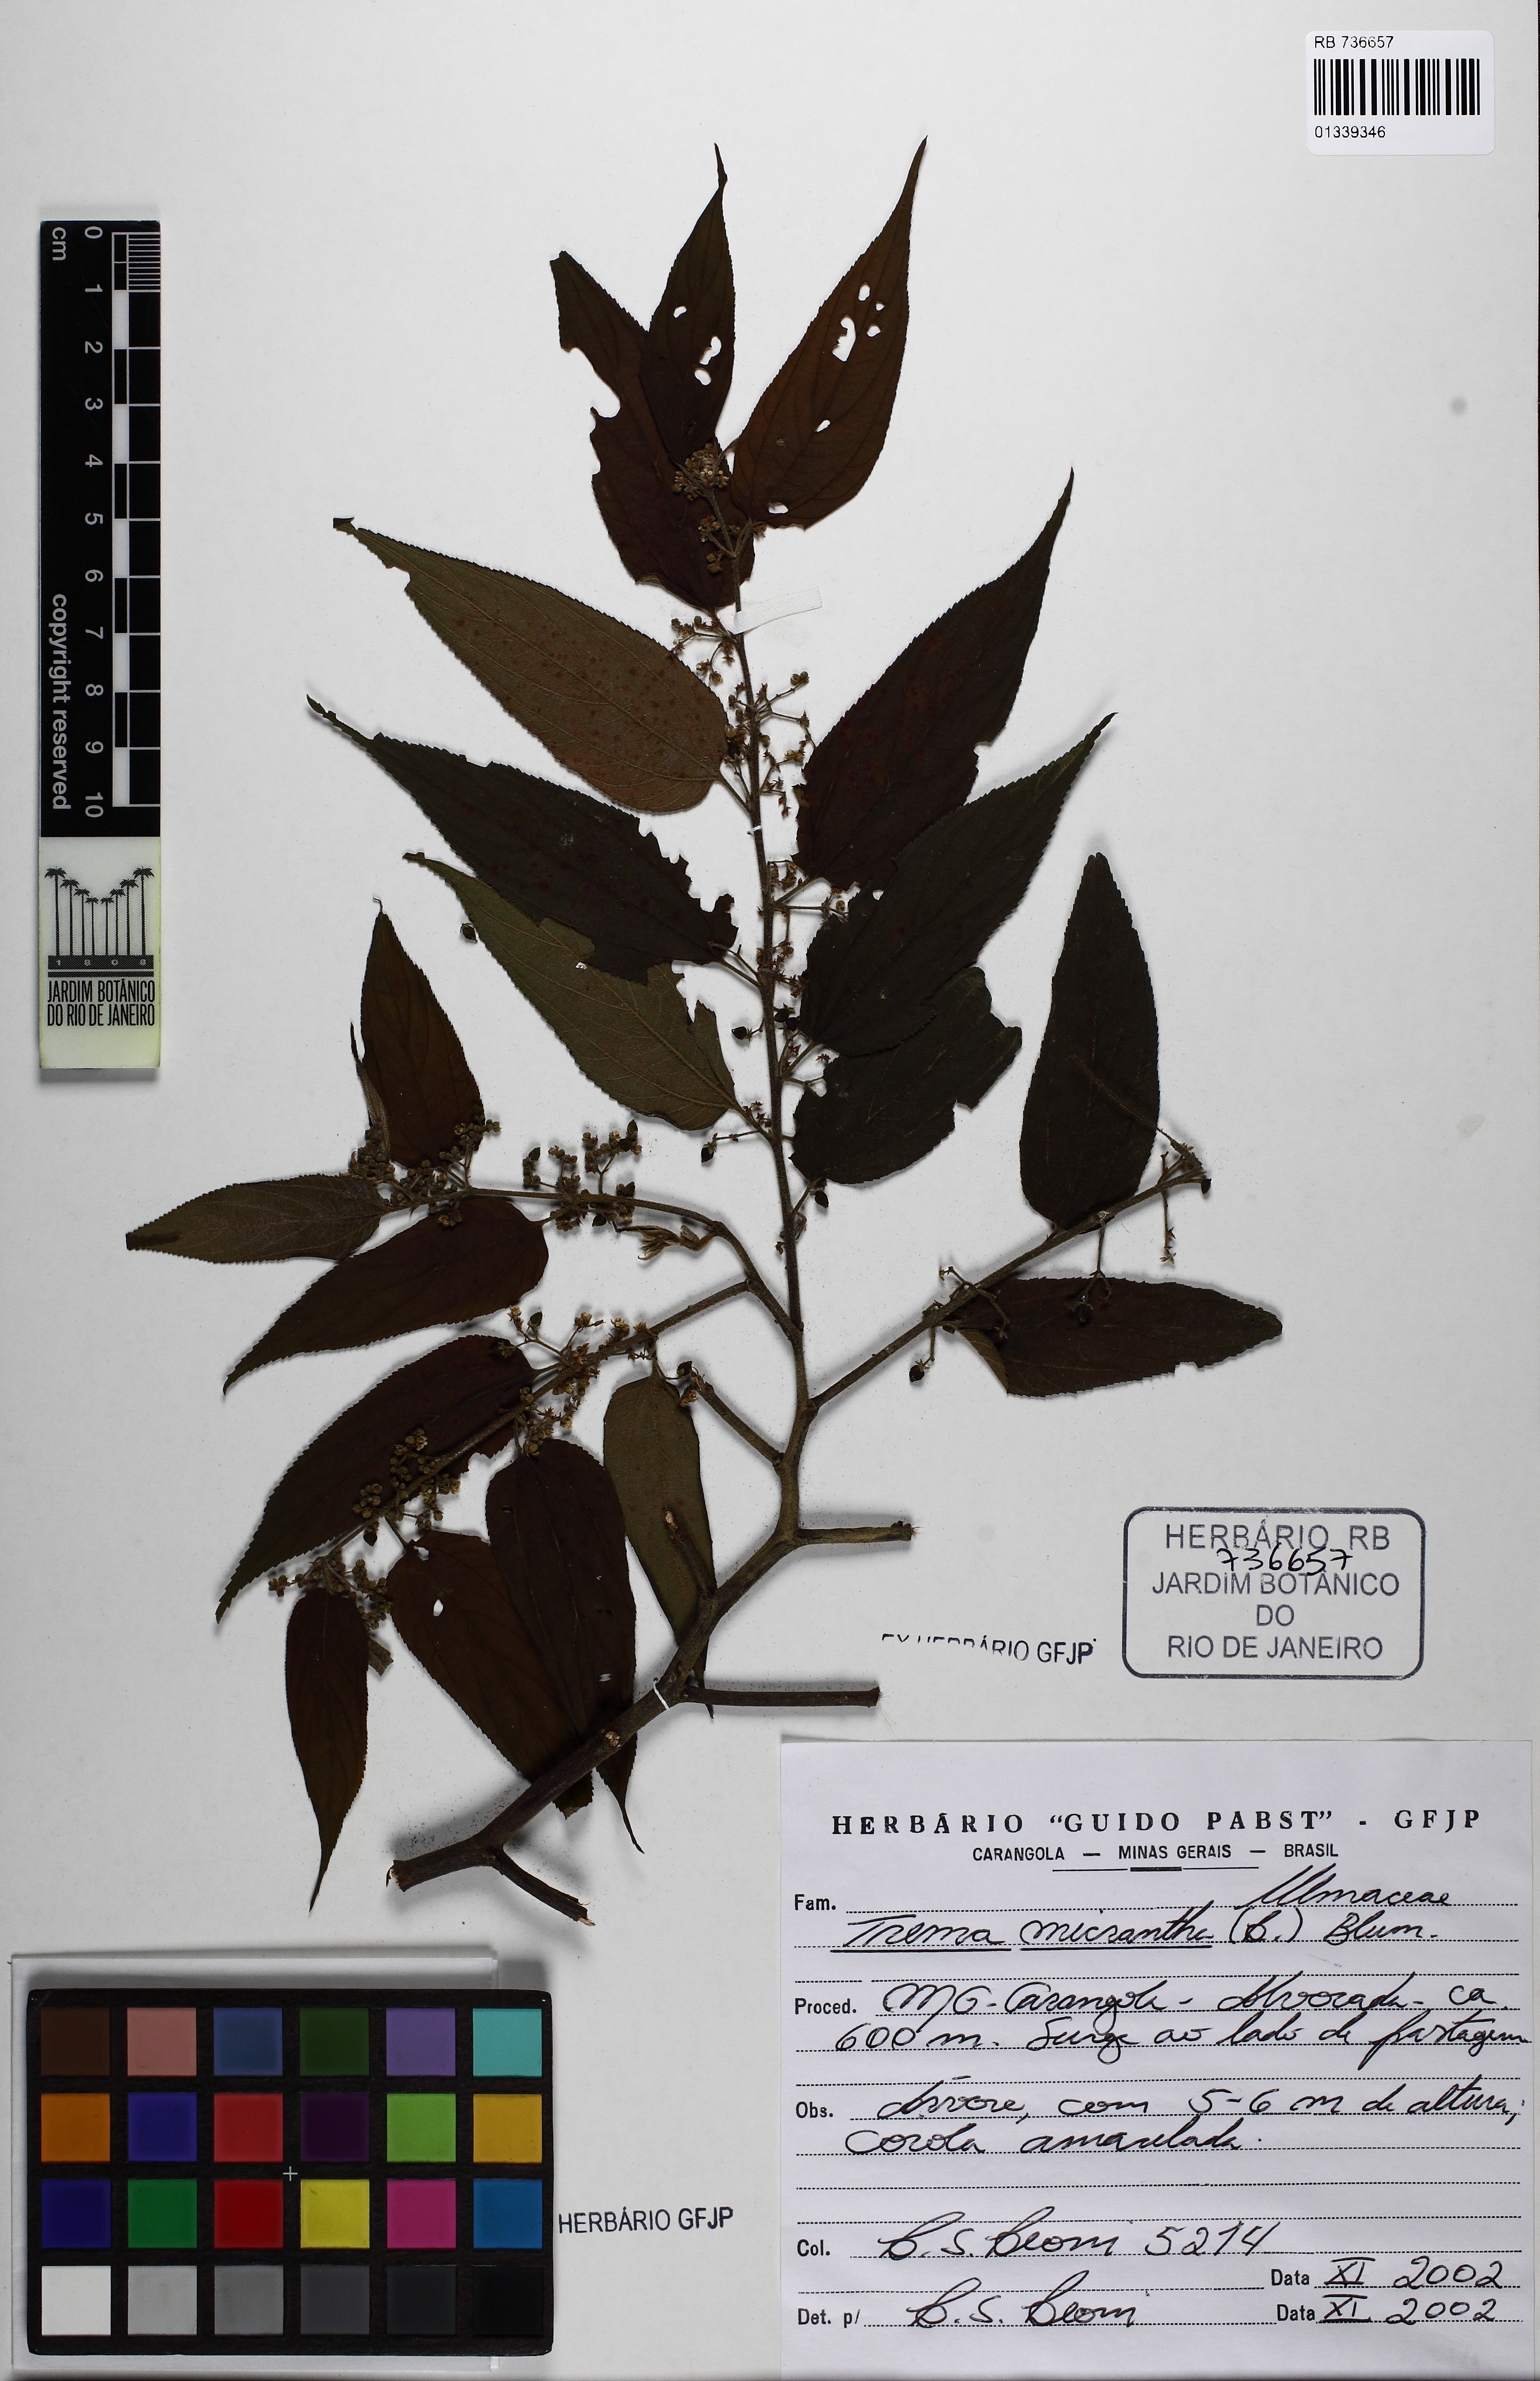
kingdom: Plantae
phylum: Tracheophyta
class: Magnoliopsida
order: Rosales
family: Cannabaceae
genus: Trema
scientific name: Trema micranthum
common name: Jamaican nettletree
